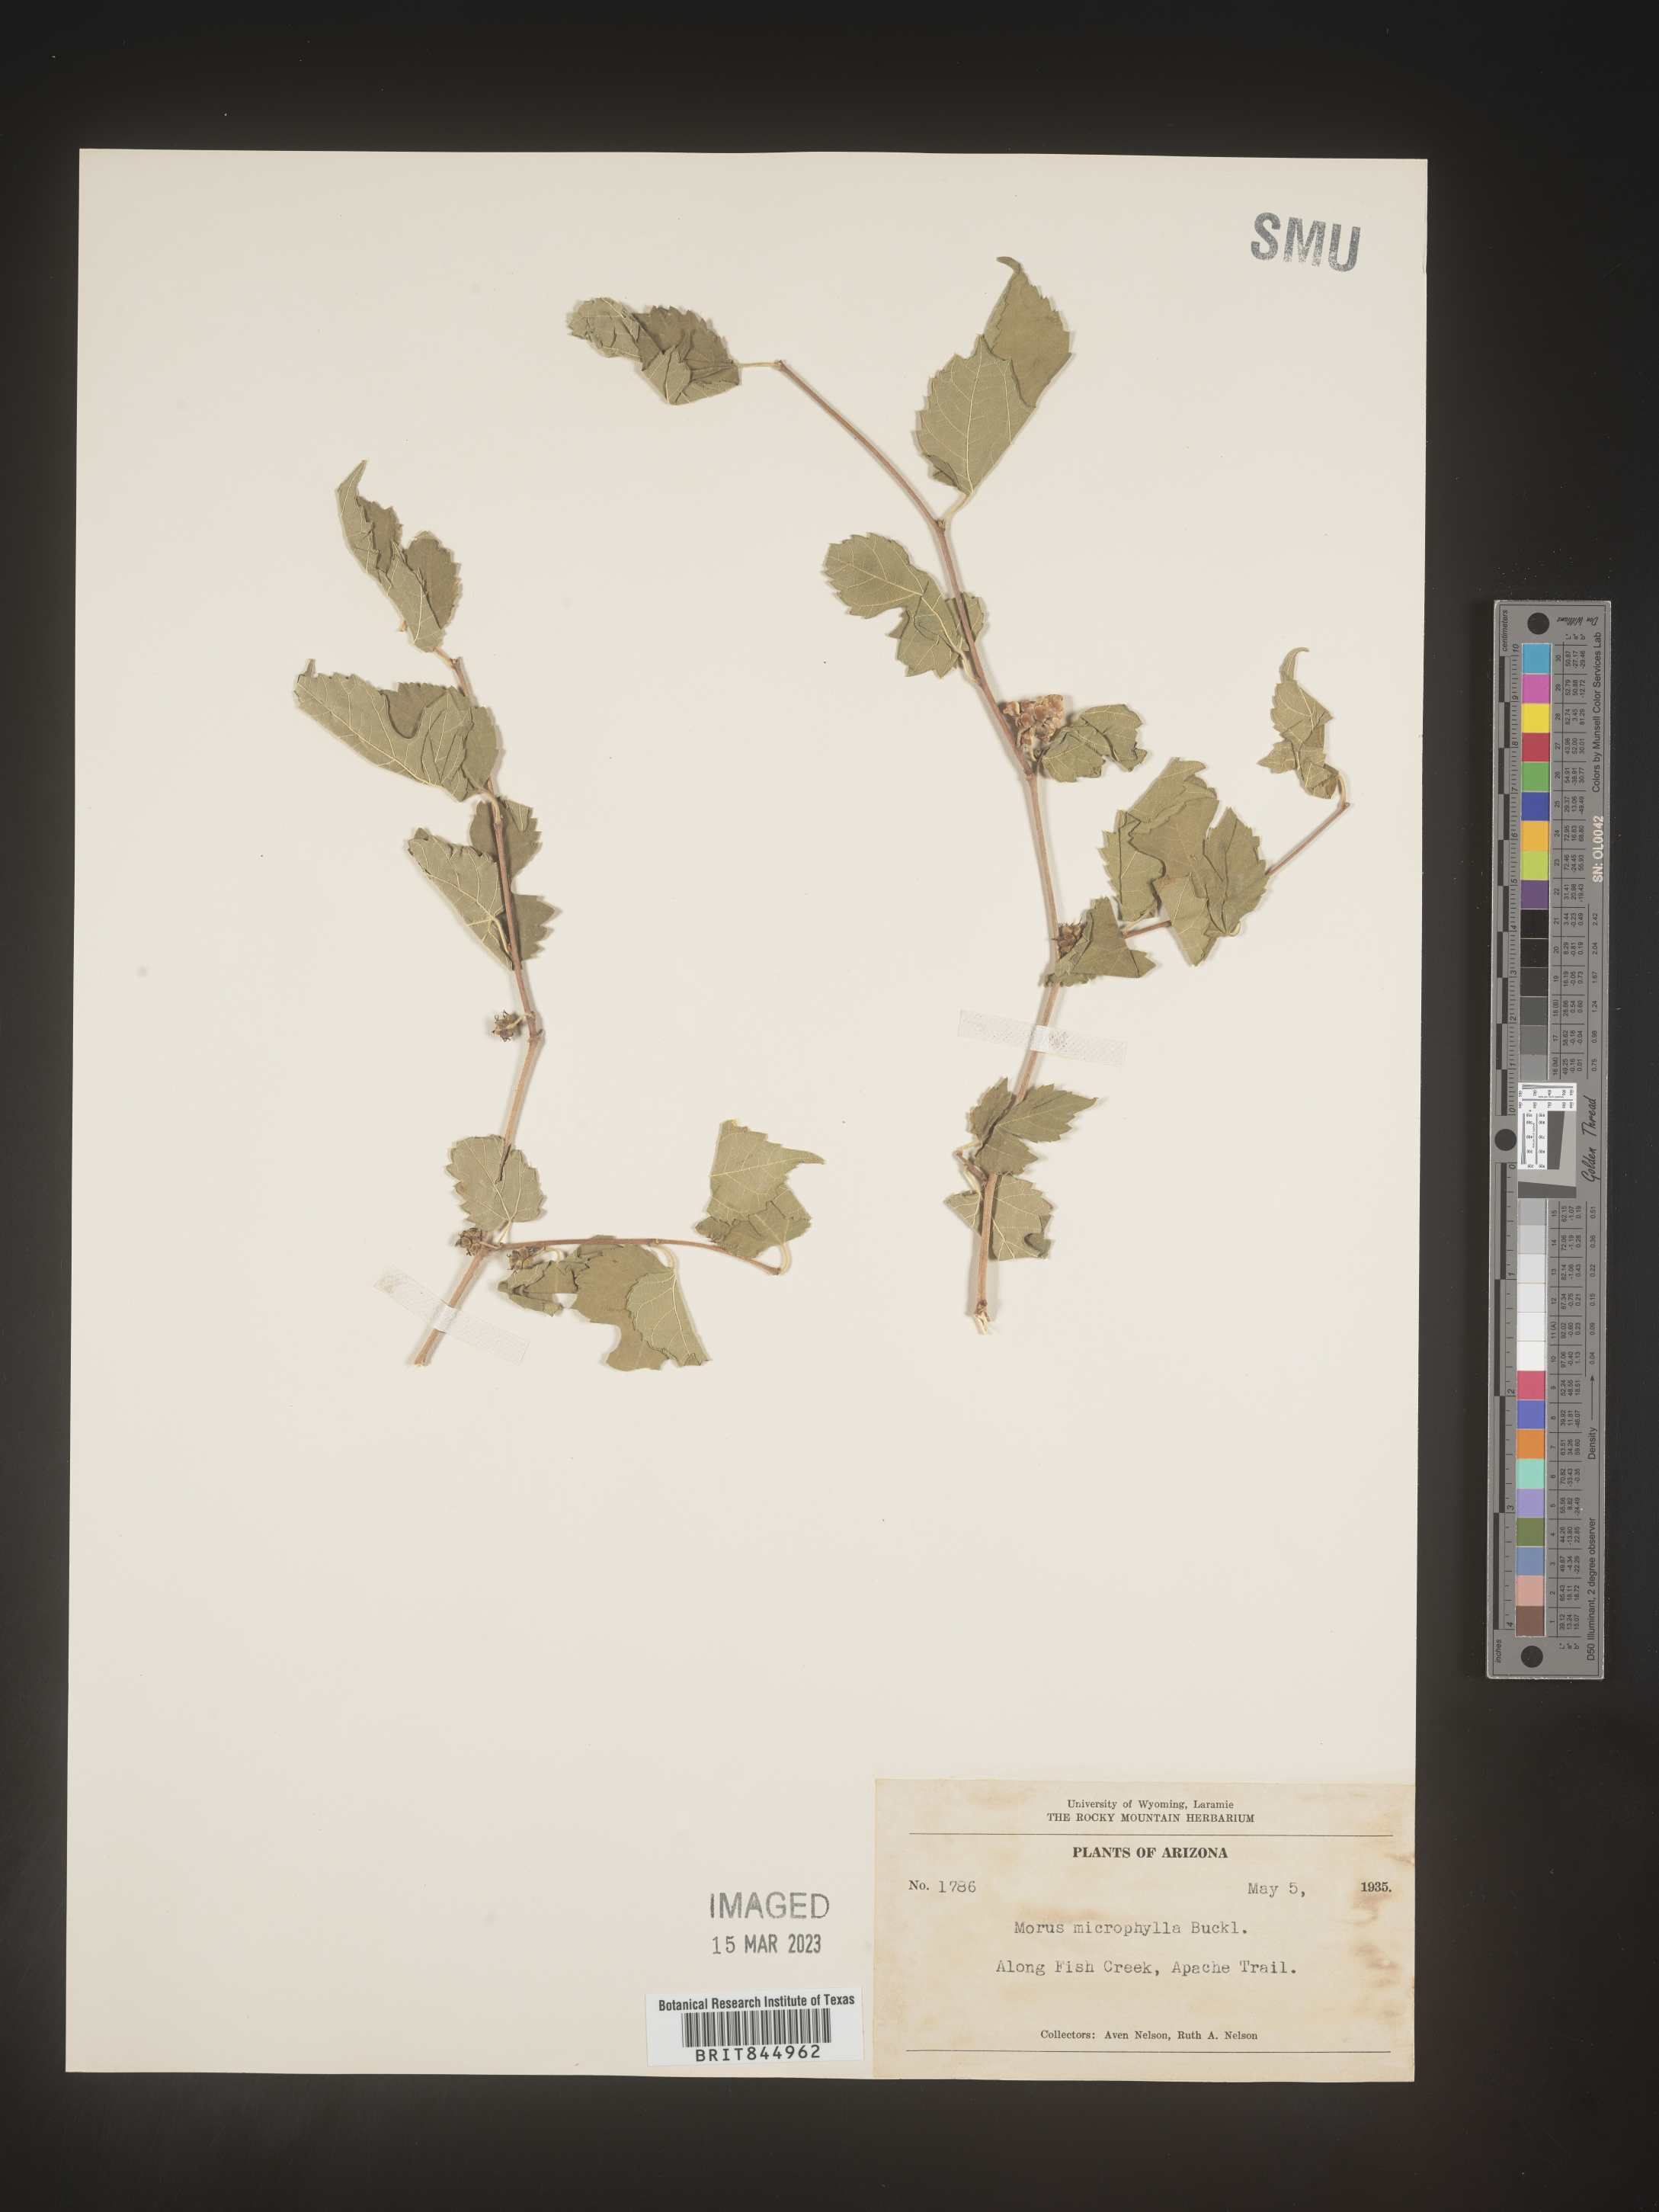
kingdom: Plantae
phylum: Tracheophyta
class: Magnoliopsida
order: Rosales
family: Moraceae
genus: Morus
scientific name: Morus microphylla
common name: Mexican mulberry
